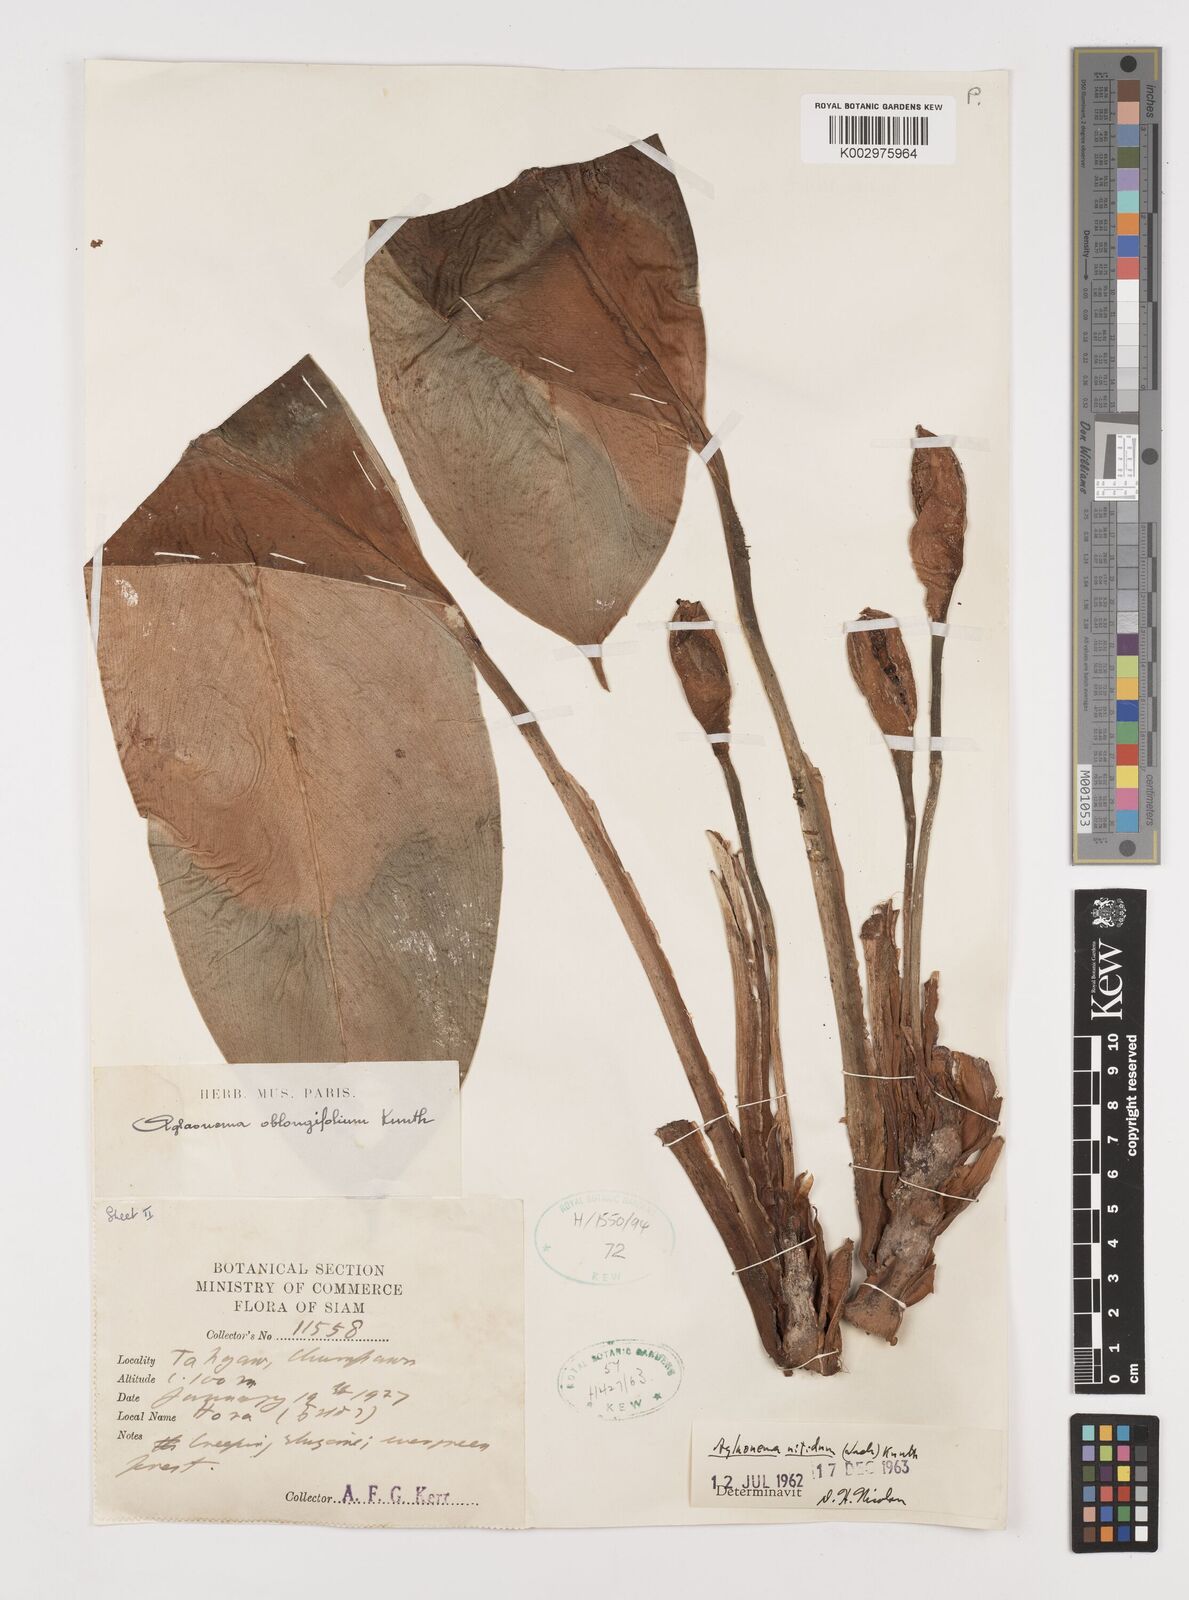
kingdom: Plantae
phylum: Tracheophyta
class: Liliopsida
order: Alismatales
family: Araceae
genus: Aglaonema
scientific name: Aglaonema nitidum
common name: Aglaonema aroid
